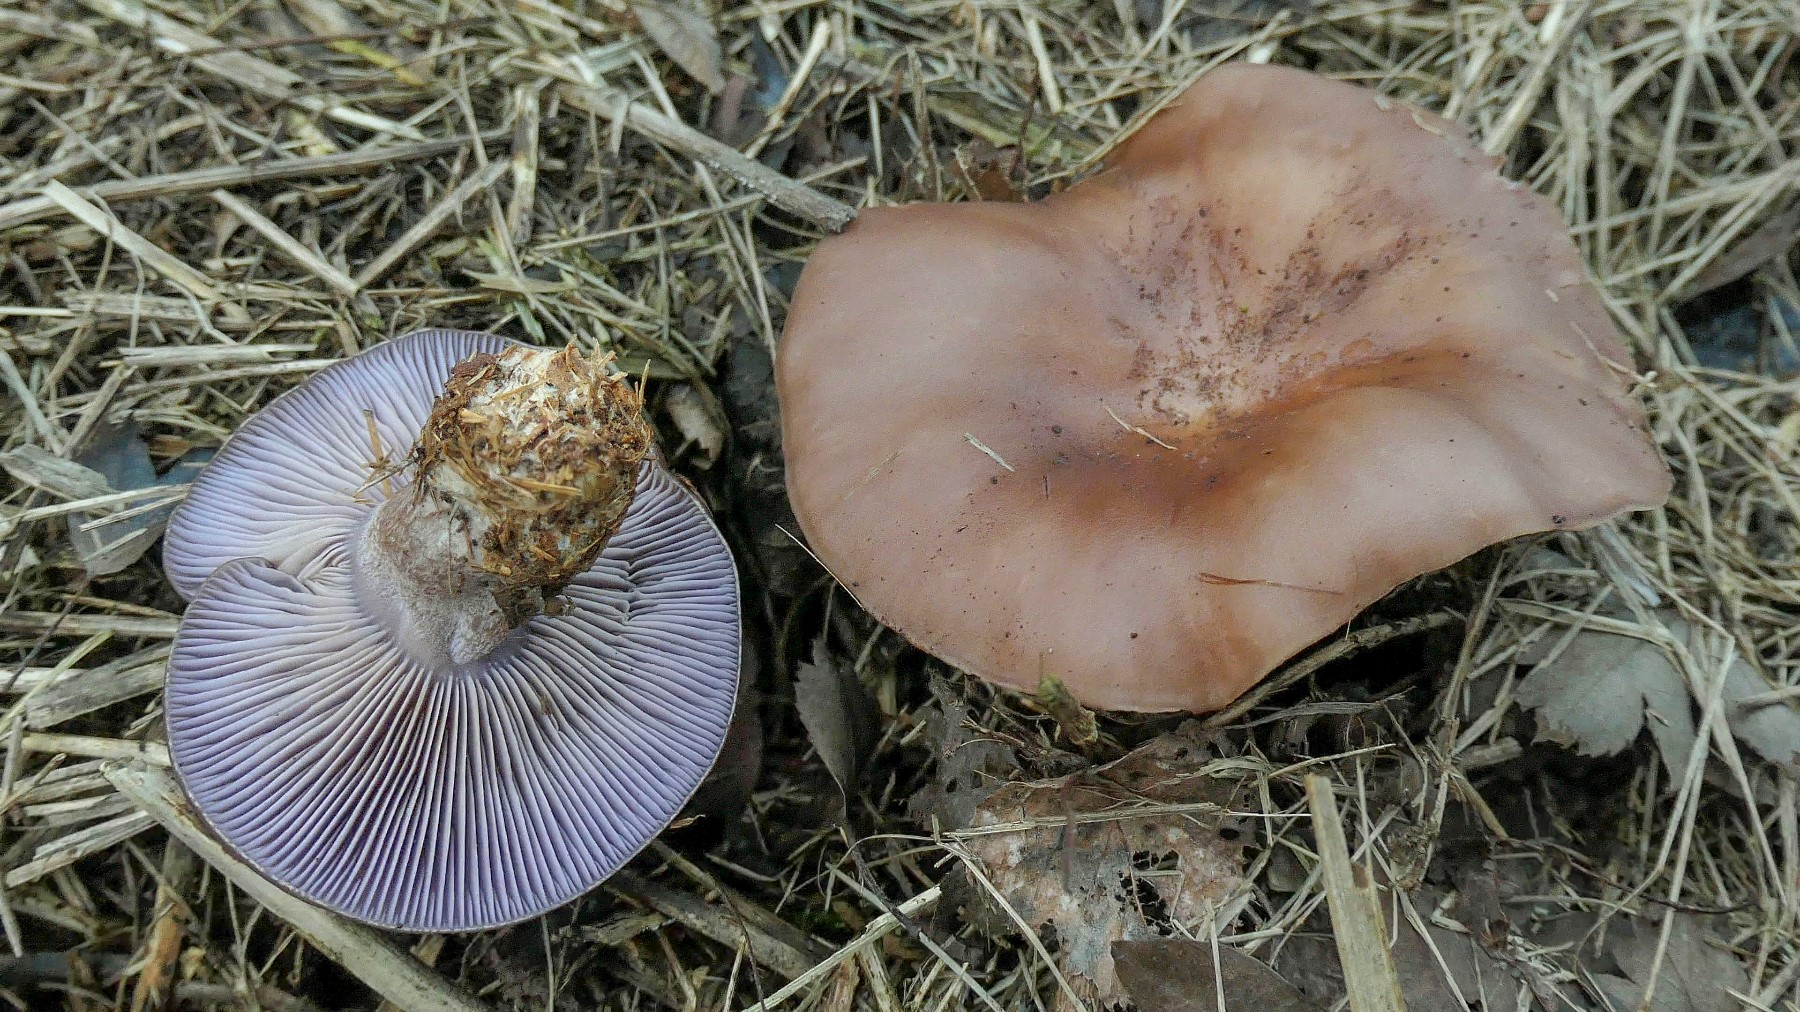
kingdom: Fungi
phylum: Basidiomycota
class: Agaricomycetes
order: Agaricales
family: Tricholomataceae
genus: Lepista
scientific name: Lepista nuda
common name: violet hekseringshat
